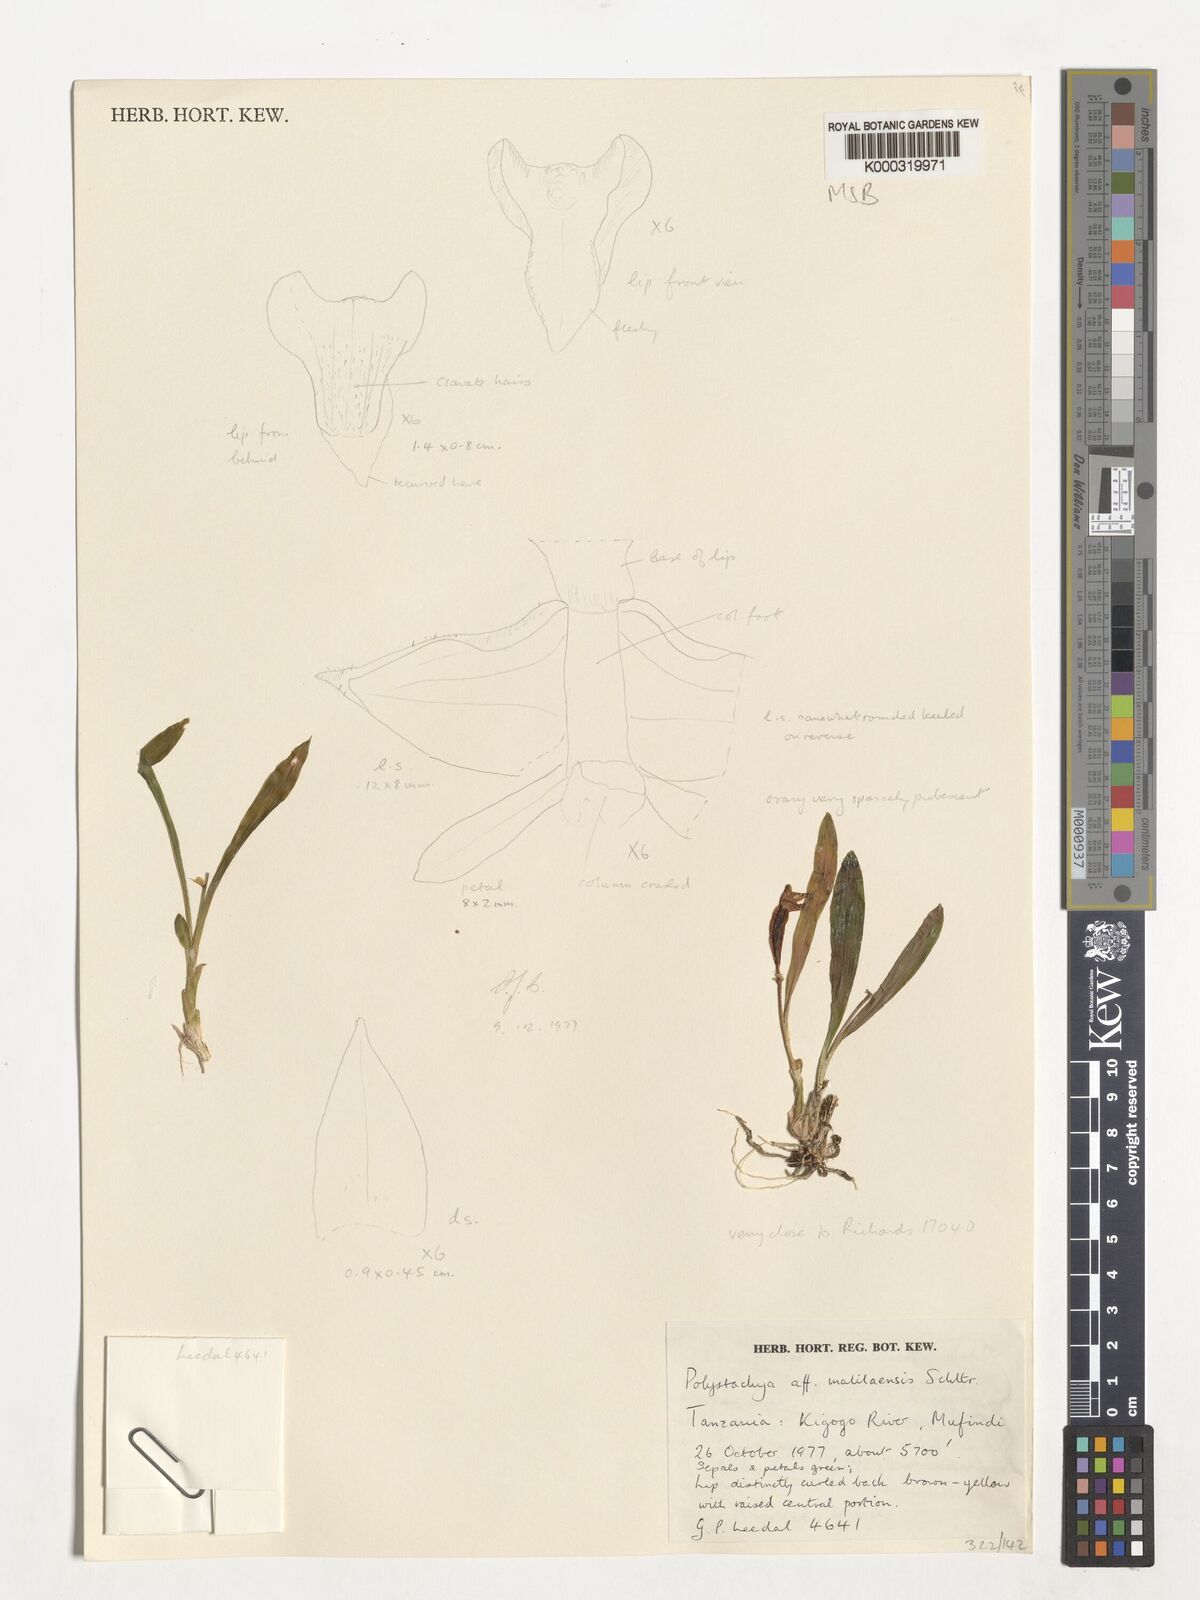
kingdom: Plantae
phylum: Tracheophyta
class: Liliopsida
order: Asparagales
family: Orchidaceae
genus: Polystachya
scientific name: Polystachya acridolens
